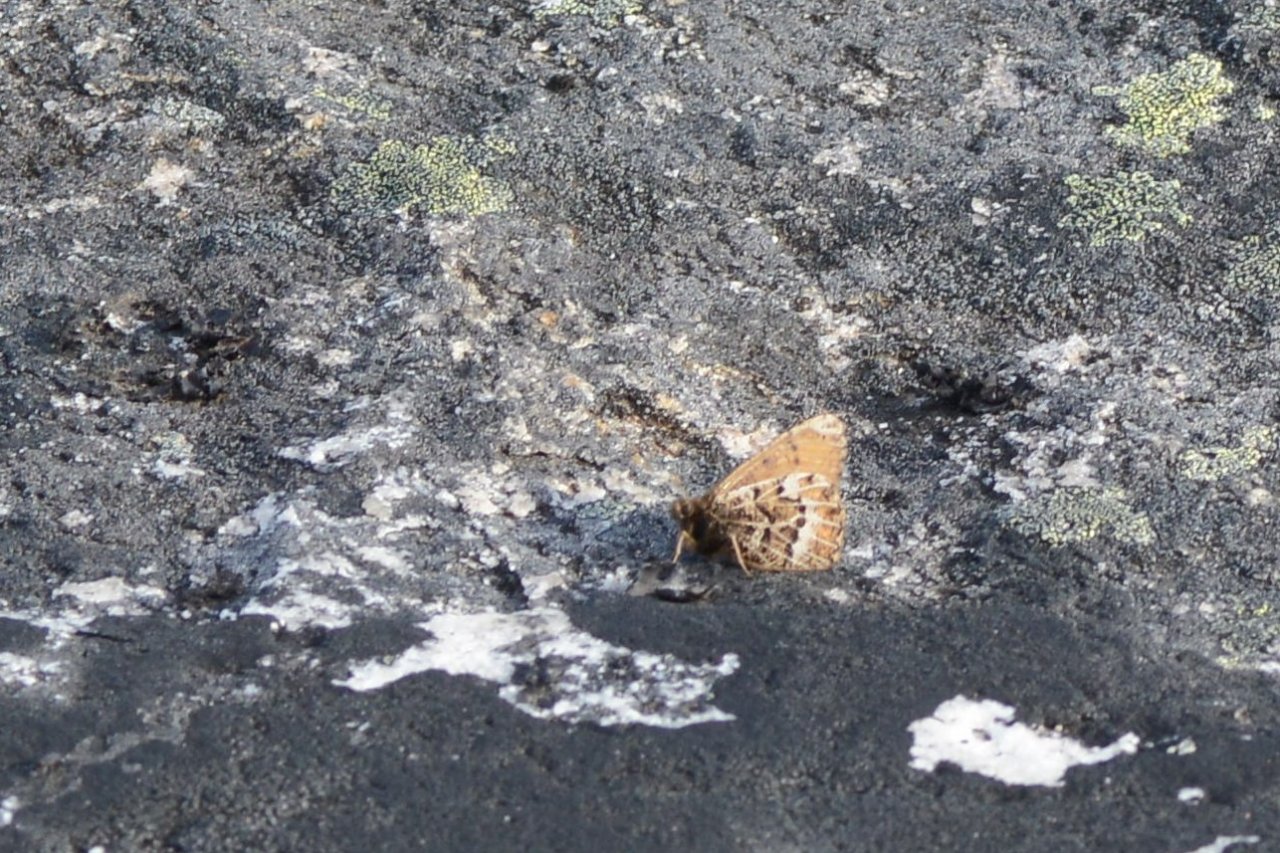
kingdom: Animalia
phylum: Arthropoda
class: Insecta
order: Lepidoptera
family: Nymphalidae
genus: Oeneis
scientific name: Oeneis bore
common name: White-veined Arctic
